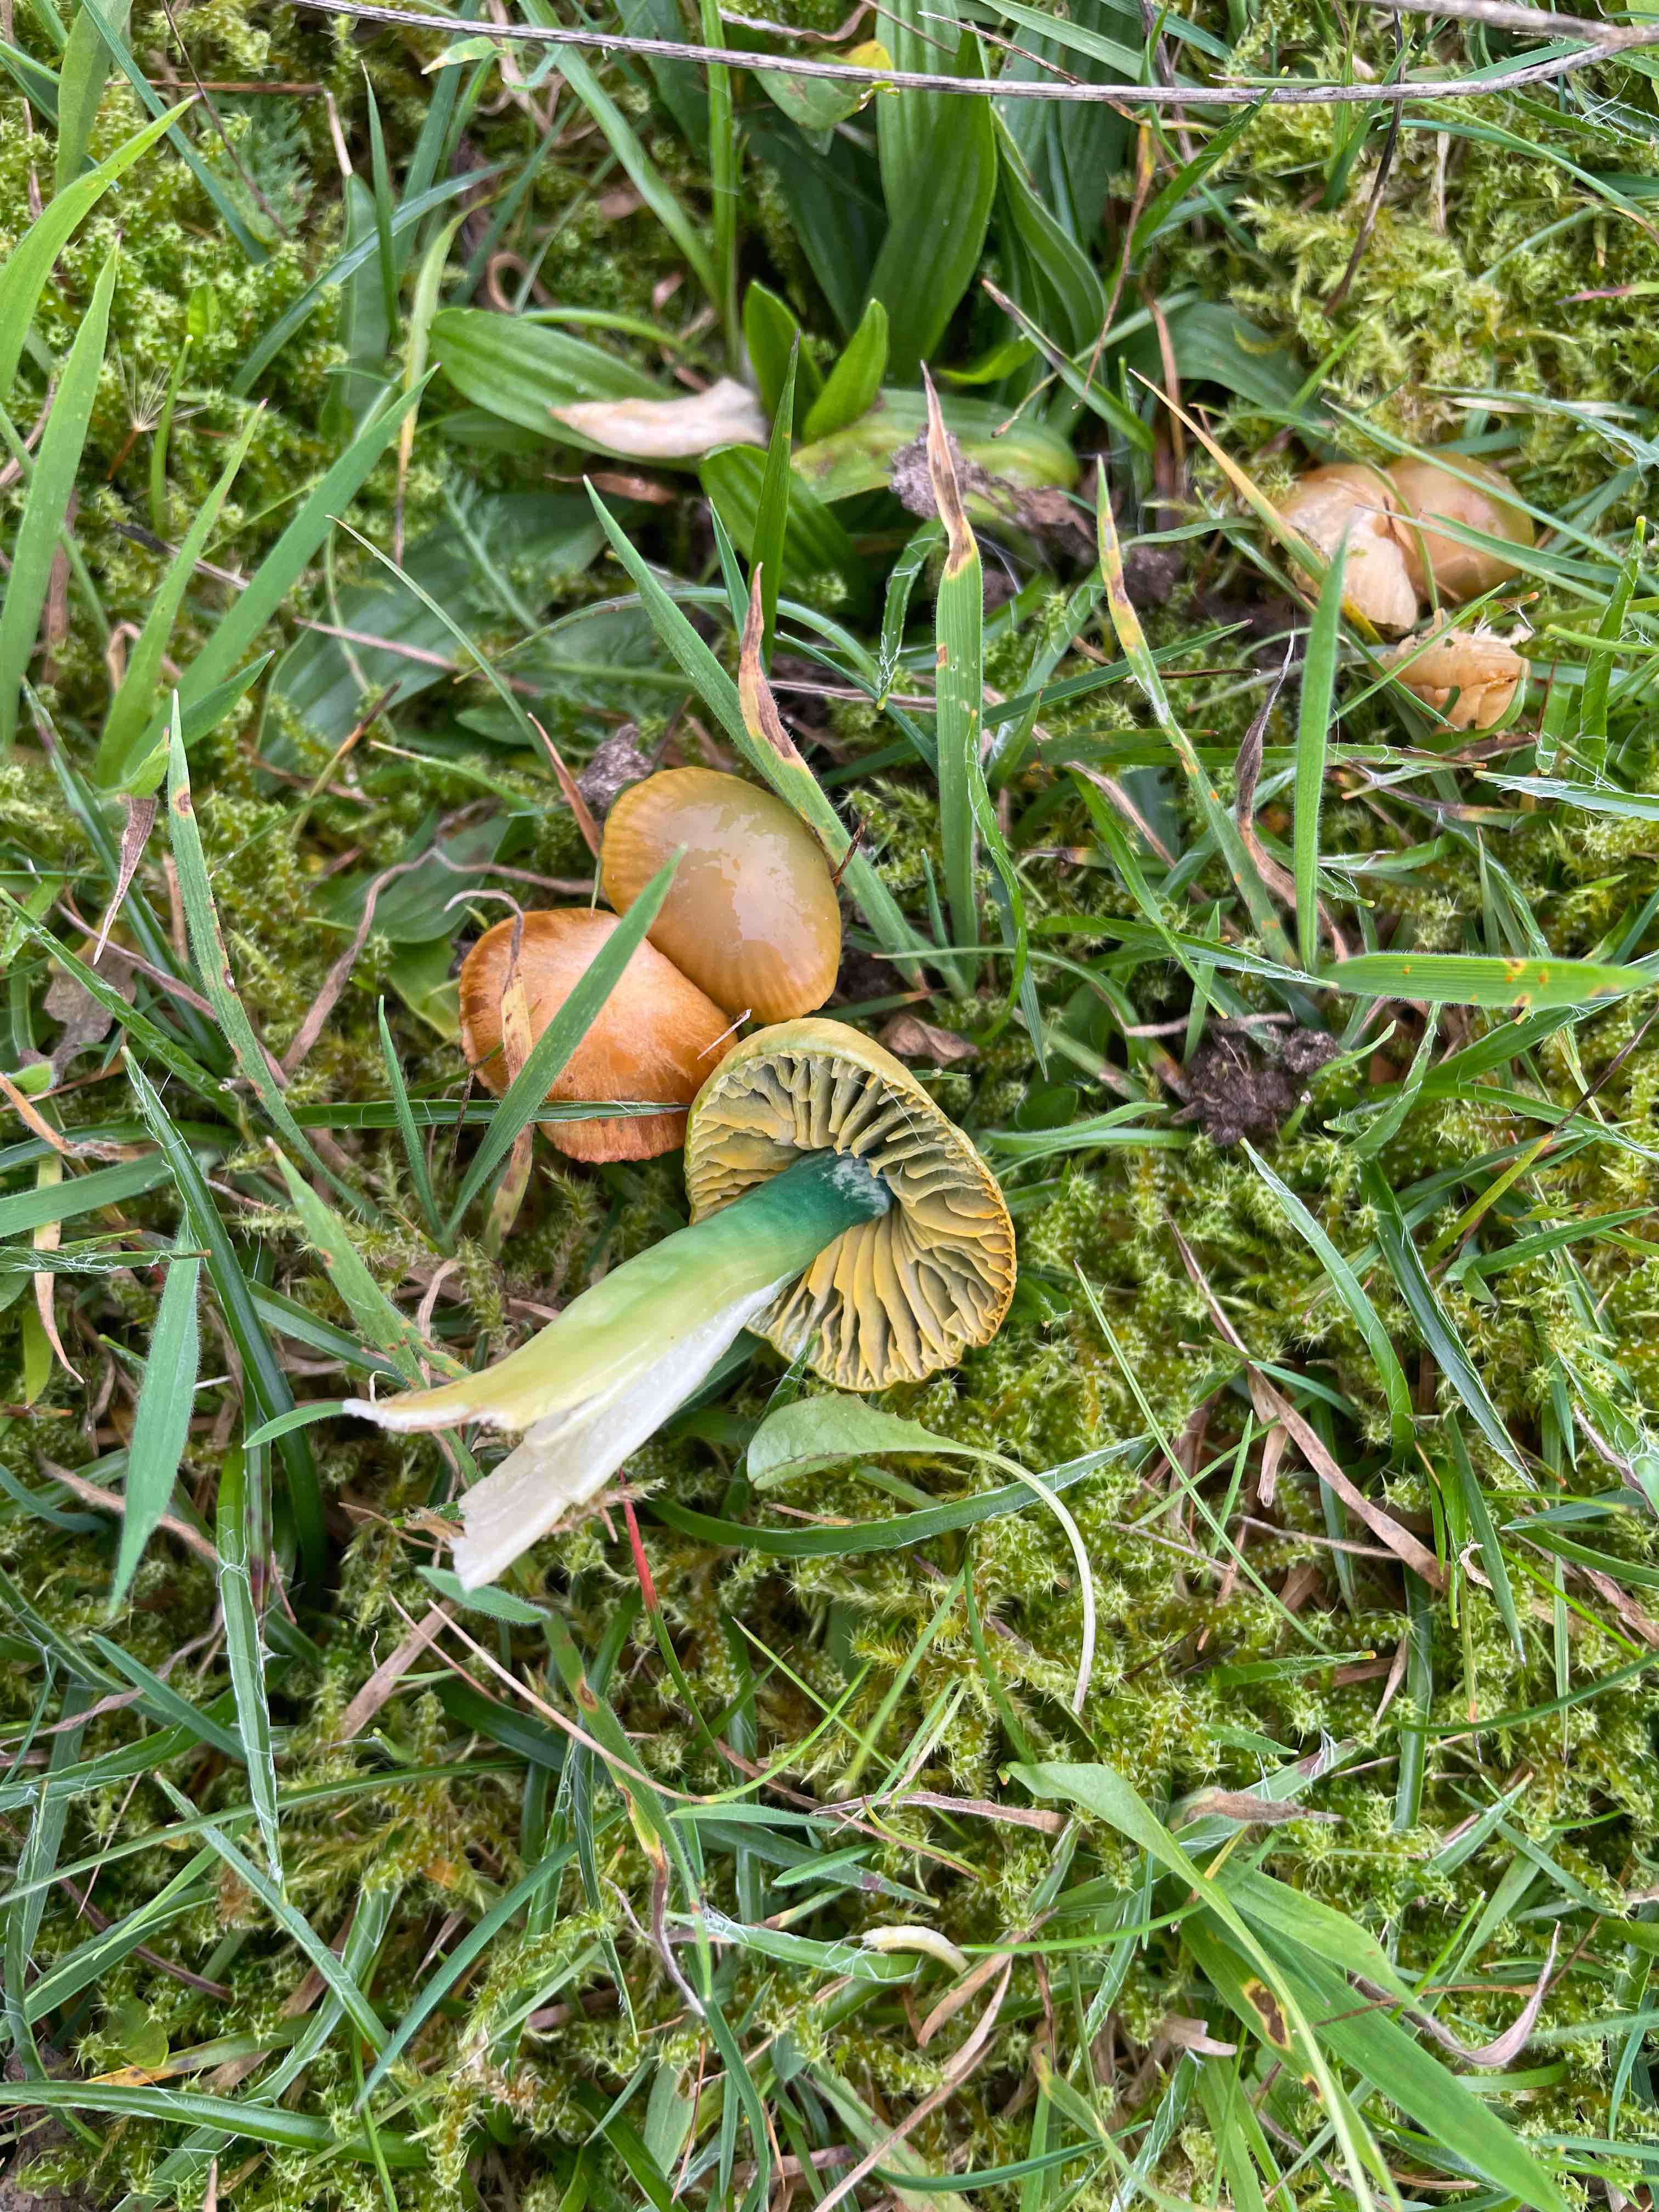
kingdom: Fungi
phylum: Basidiomycota
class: Agaricomycetes
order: Agaricales
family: Hygrophoraceae
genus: Gliophorus
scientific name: Gliophorus psittacinus
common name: papegøje-vokshat
